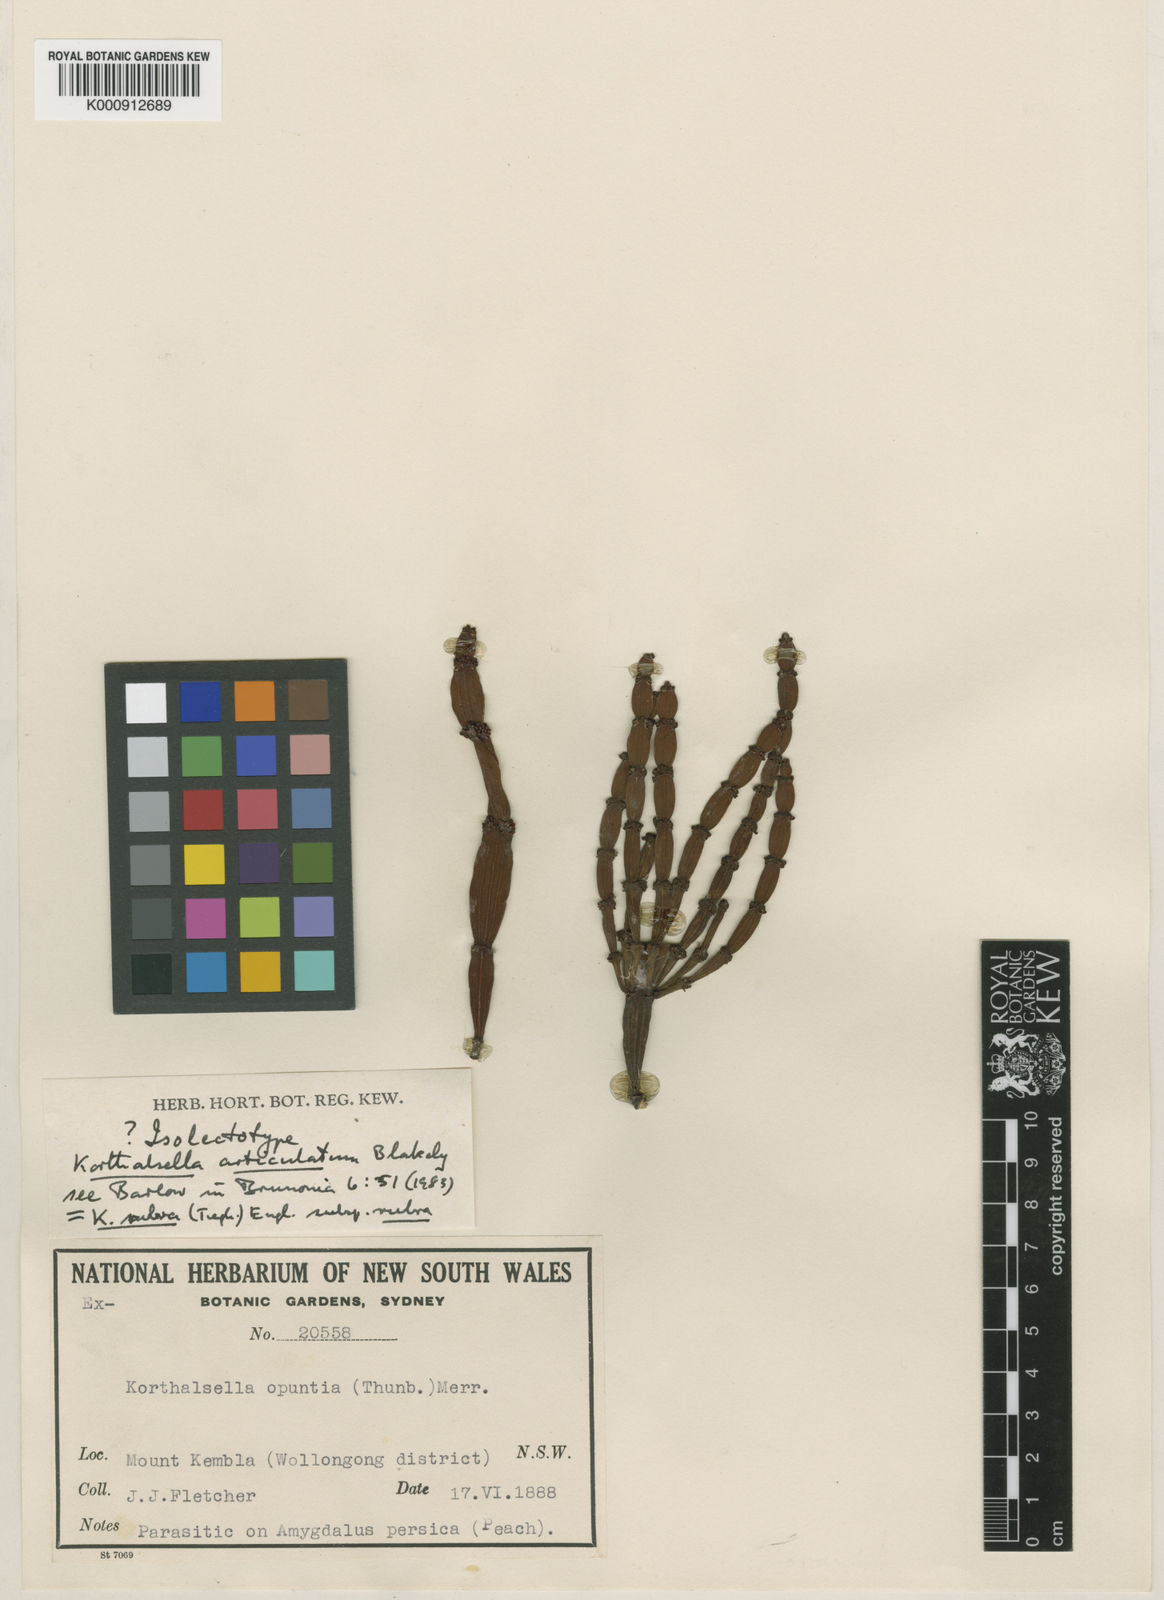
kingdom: Plantae
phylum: Tracheophyta
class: Magnoliopsida
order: Santalales
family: Viscaceae
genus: Korthalsella
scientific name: Korthalsella
